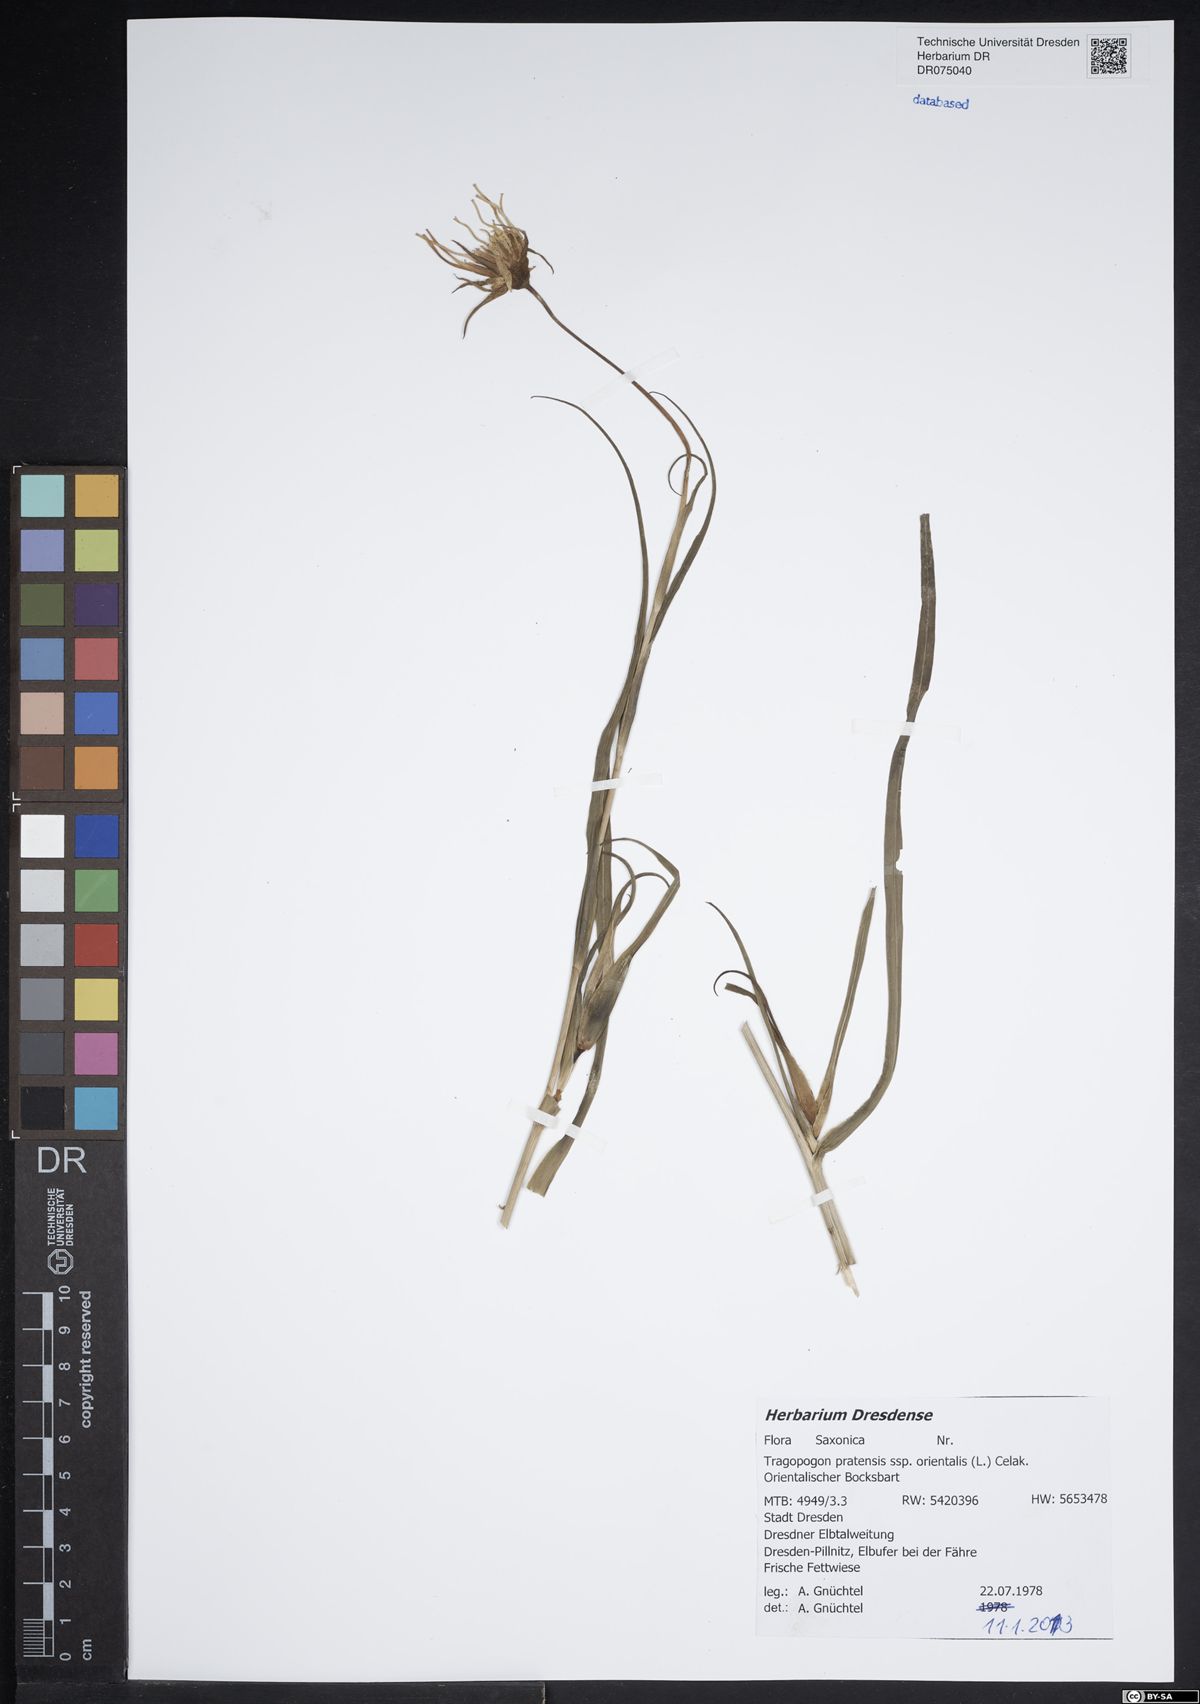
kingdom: Plantae
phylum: Tracheophyta
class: Magnoliopsida
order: Asterales
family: Asteraceae
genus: Tragopogon
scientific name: Tragopogon orientalis
